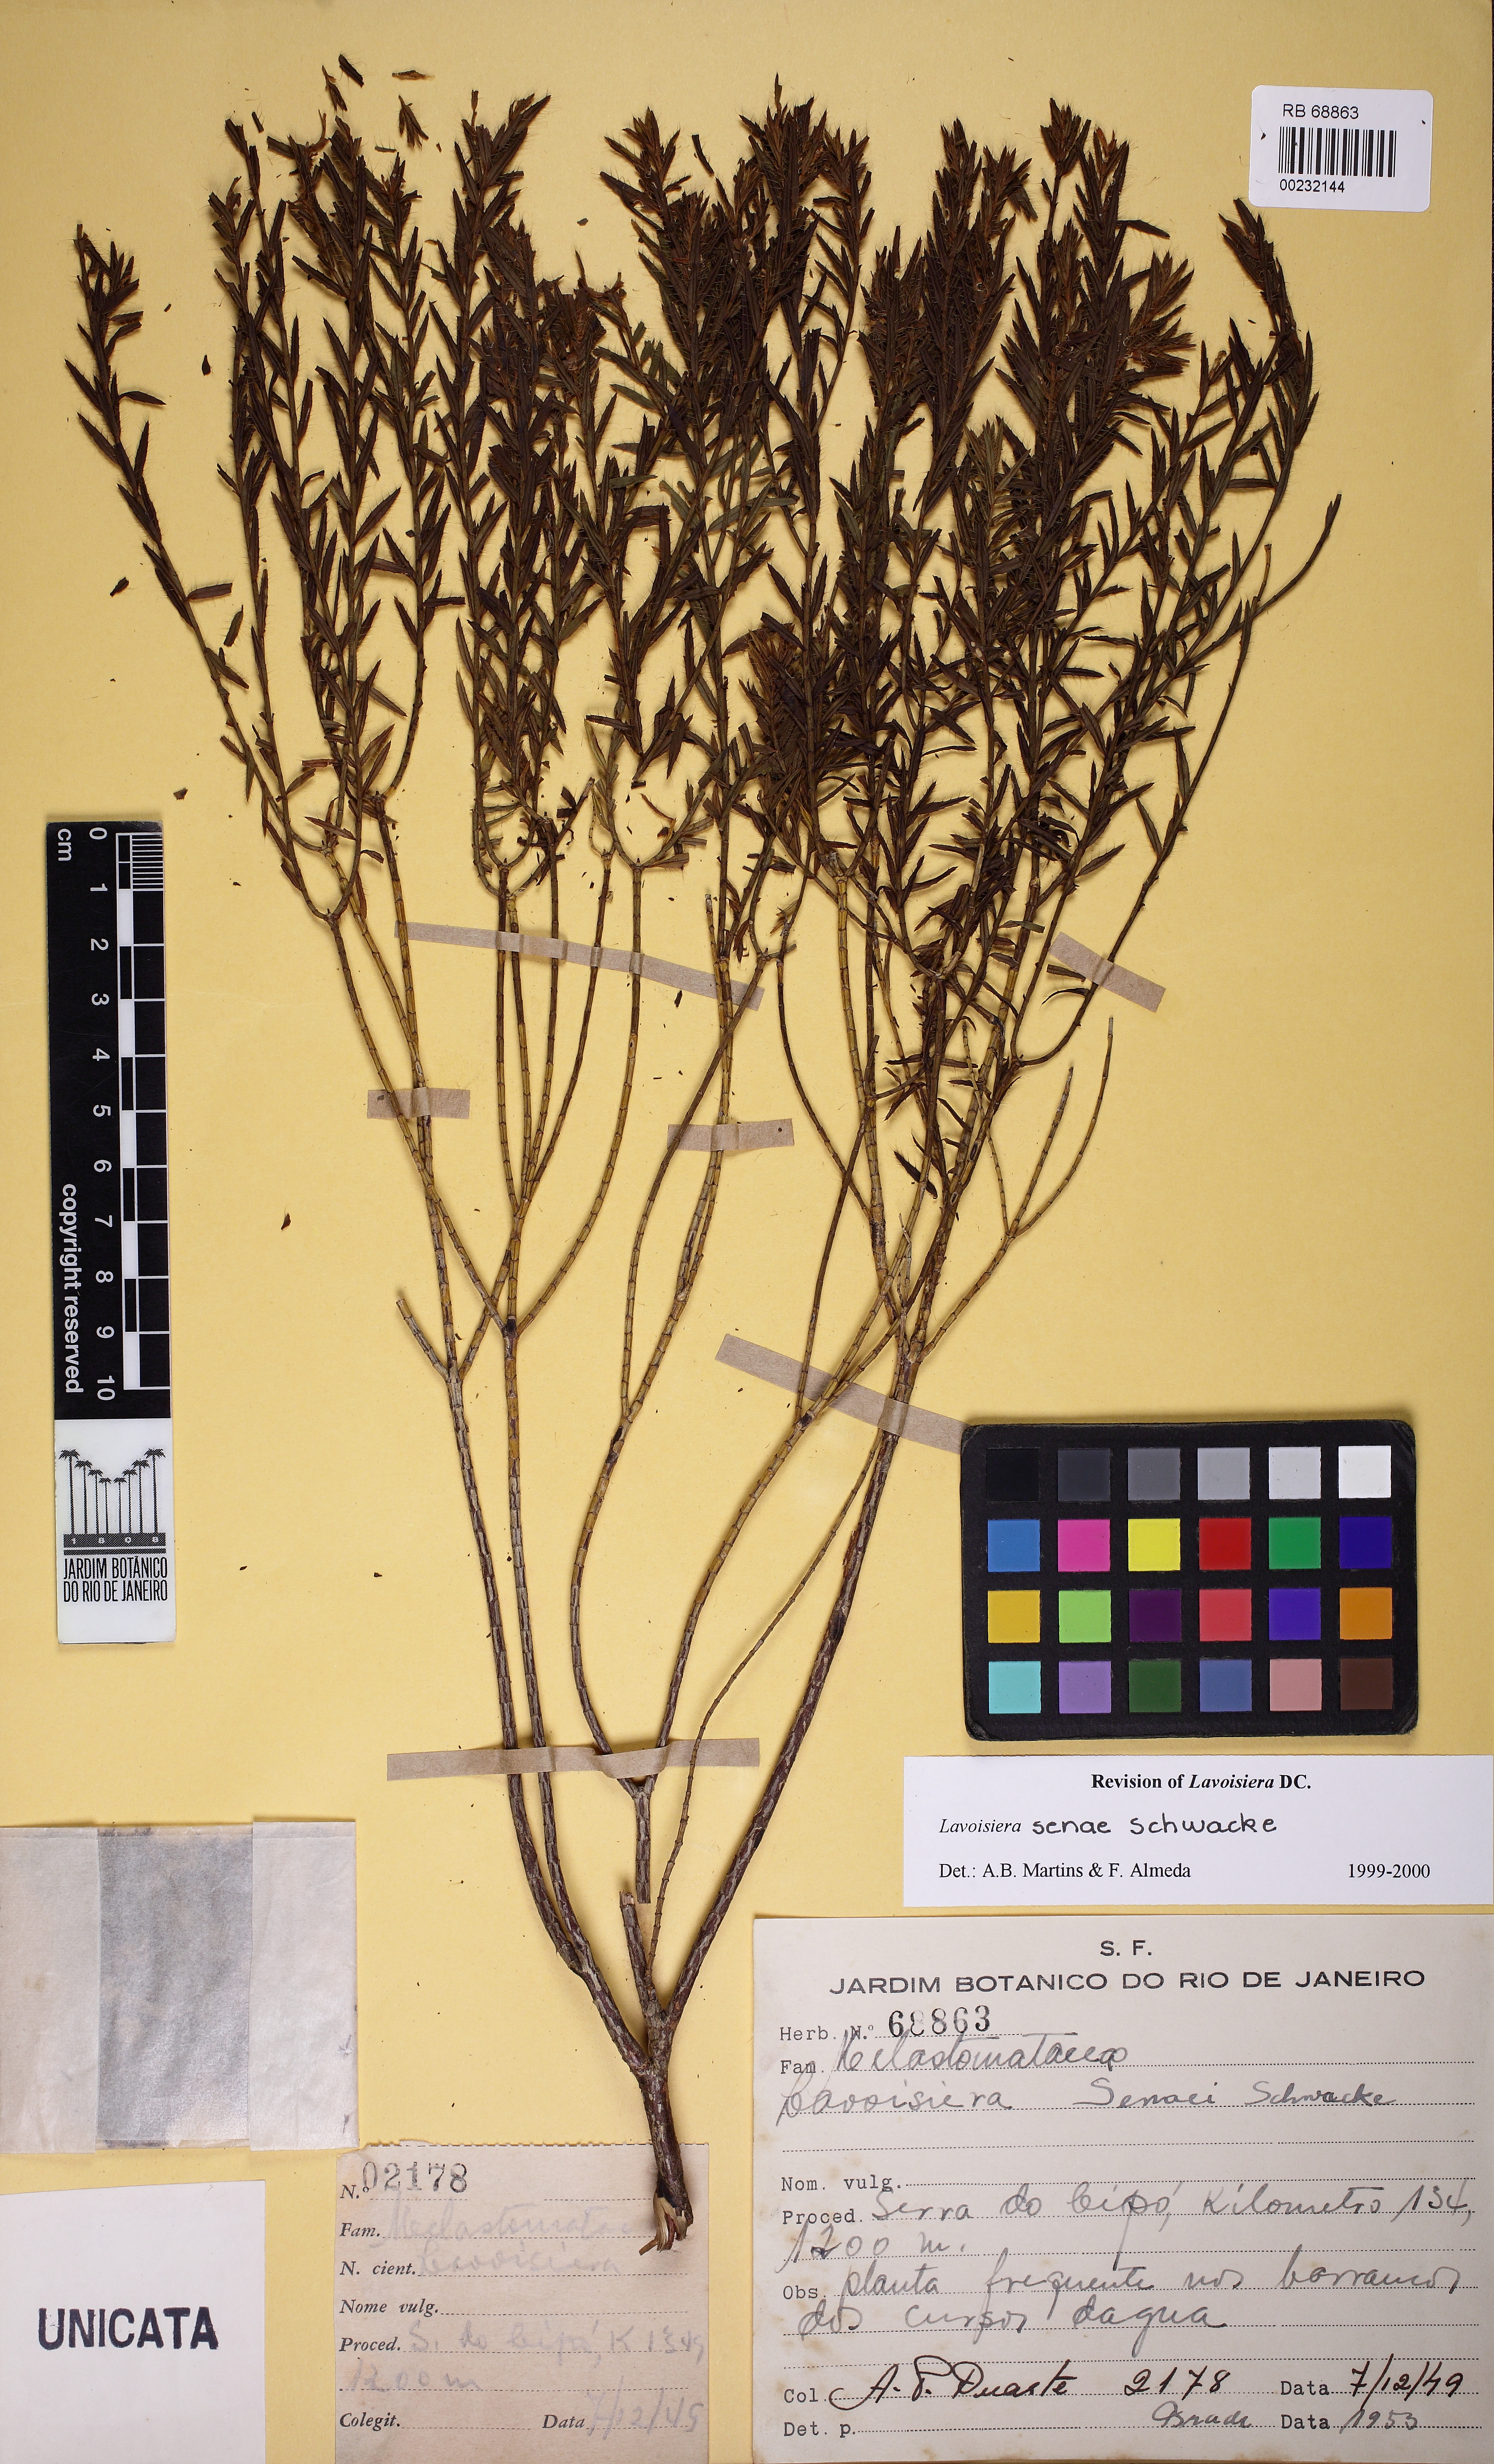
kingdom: Plantae
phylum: Tracheophyta
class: Magnoliopsida
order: Myrtales
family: Melastomataceae
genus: Microlicia
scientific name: Microlicia Lavoisiera senaei
